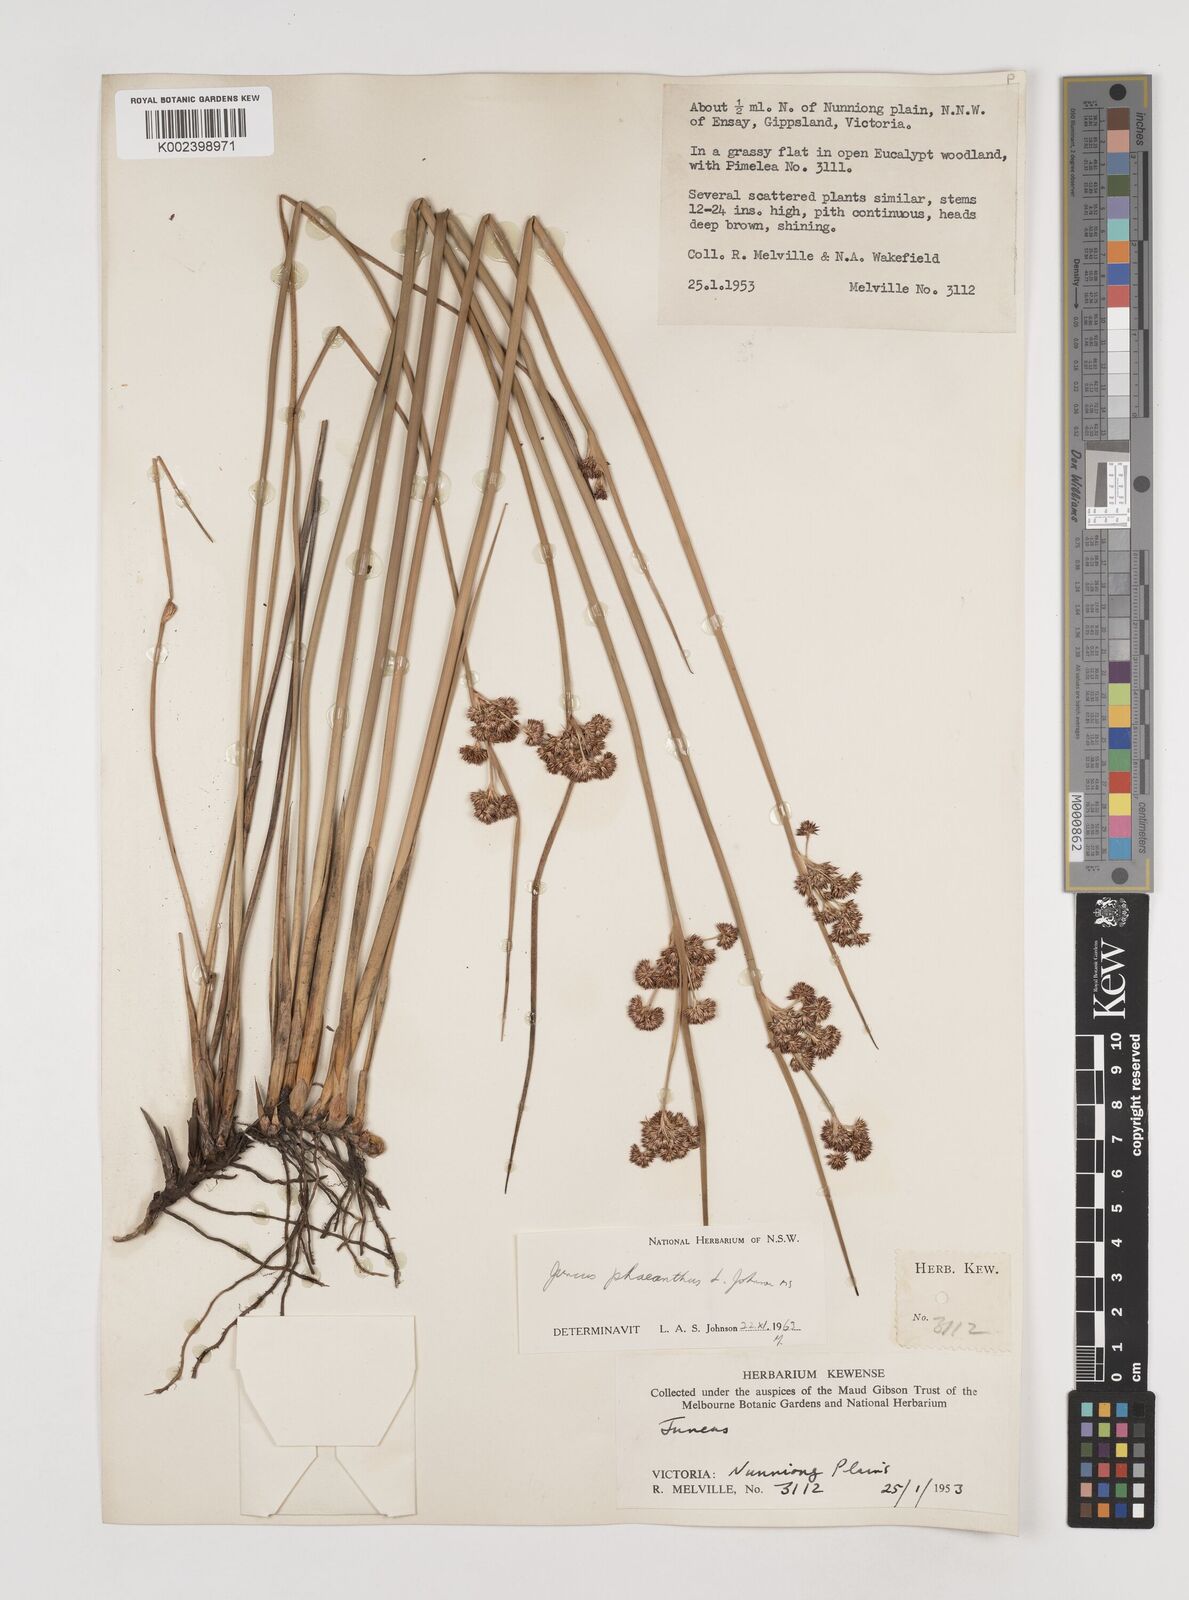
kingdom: Plantae
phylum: Tracheophyta
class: Liliopsida
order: Poales
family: Juncaceae
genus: Juncus
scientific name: Juncus phaeanthus
